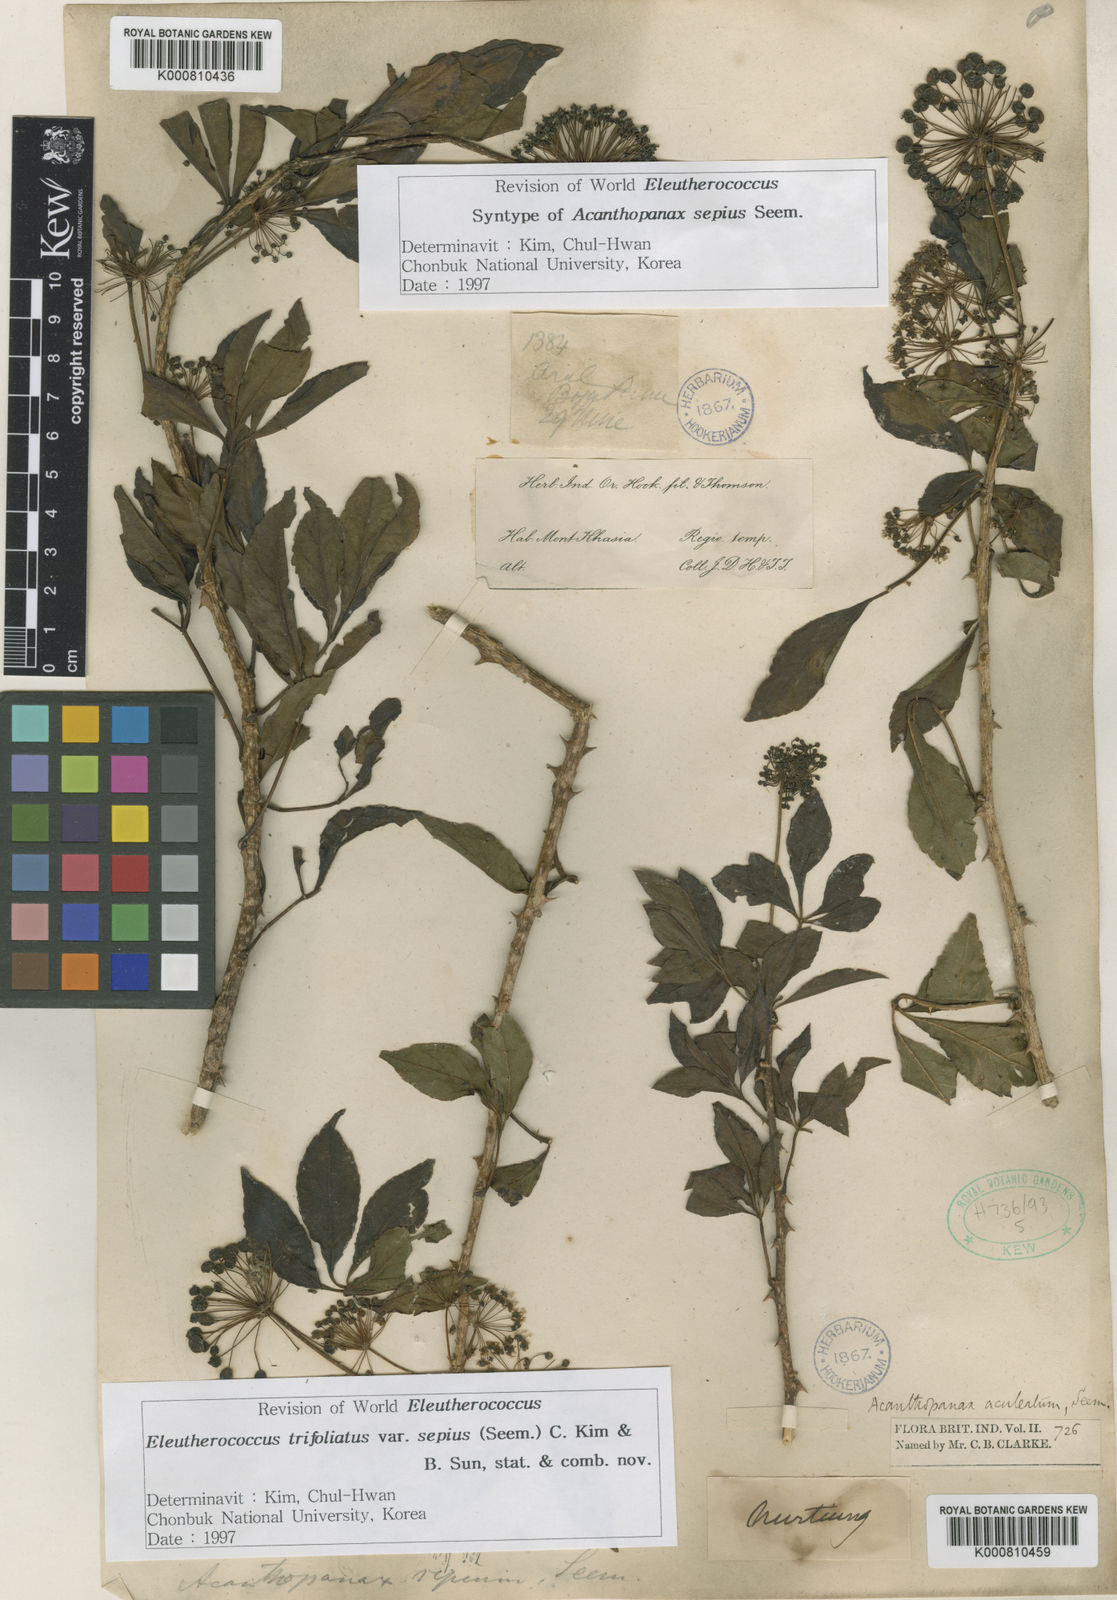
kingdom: Plantae
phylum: Tracheophyta
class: Magnoliopsida
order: Apiales
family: Araliaceae
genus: Eleutherococcus
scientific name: Eleutherococcus trifoliatus
